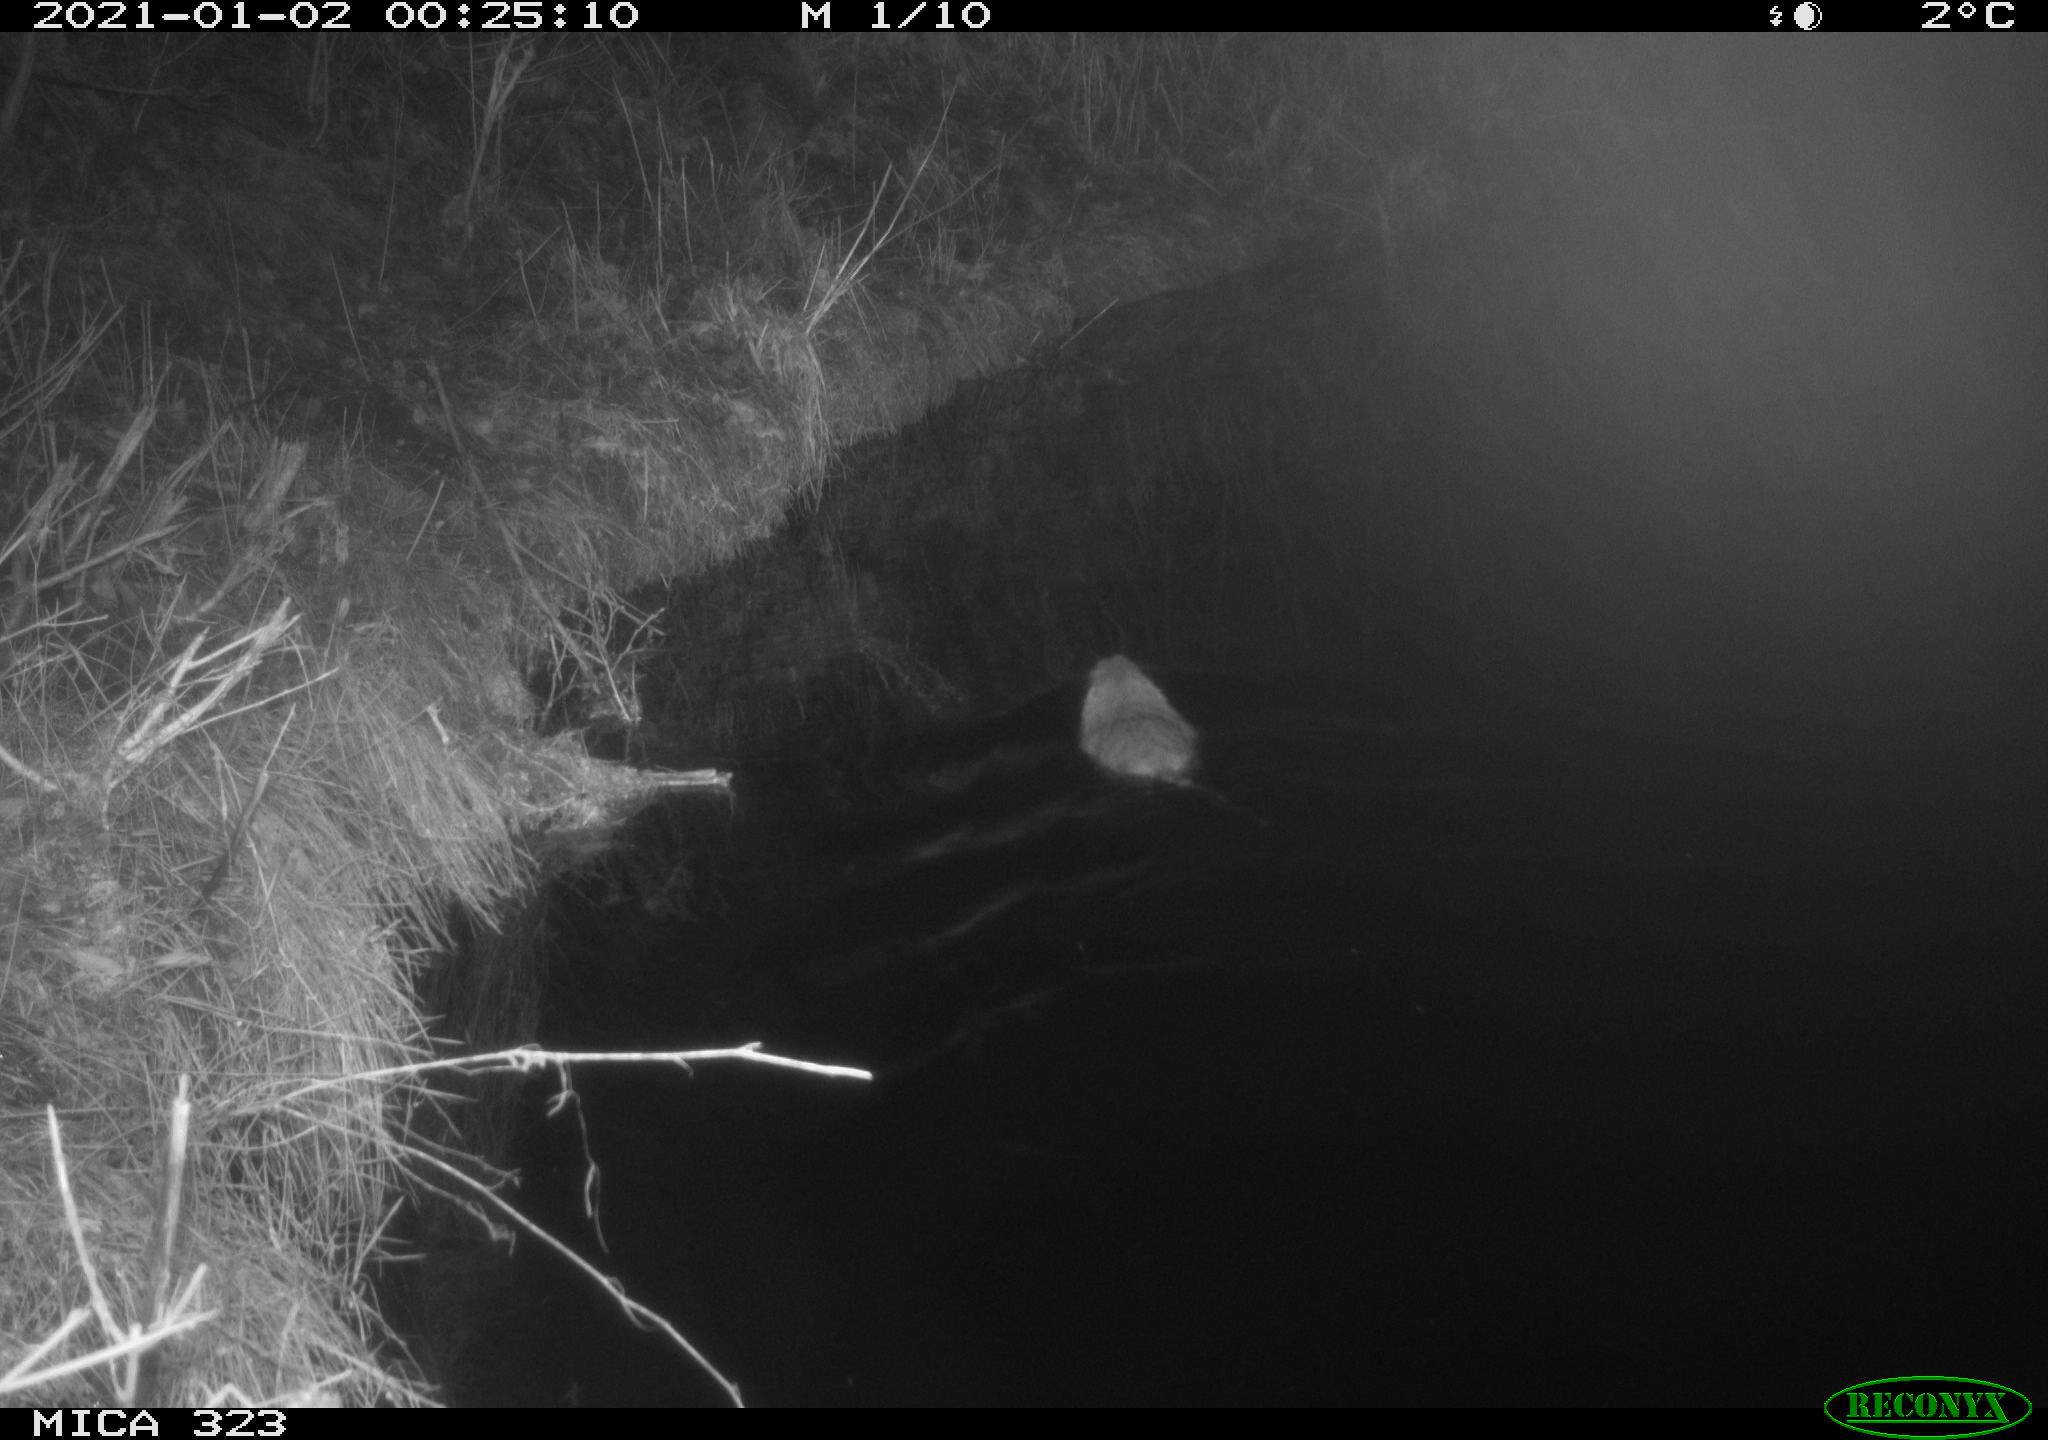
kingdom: Animalia
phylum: Chordata
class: Mammalia
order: Rodentia
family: Myocastoridae
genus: Myocastor
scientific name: Myocastor coypus
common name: Coypu
